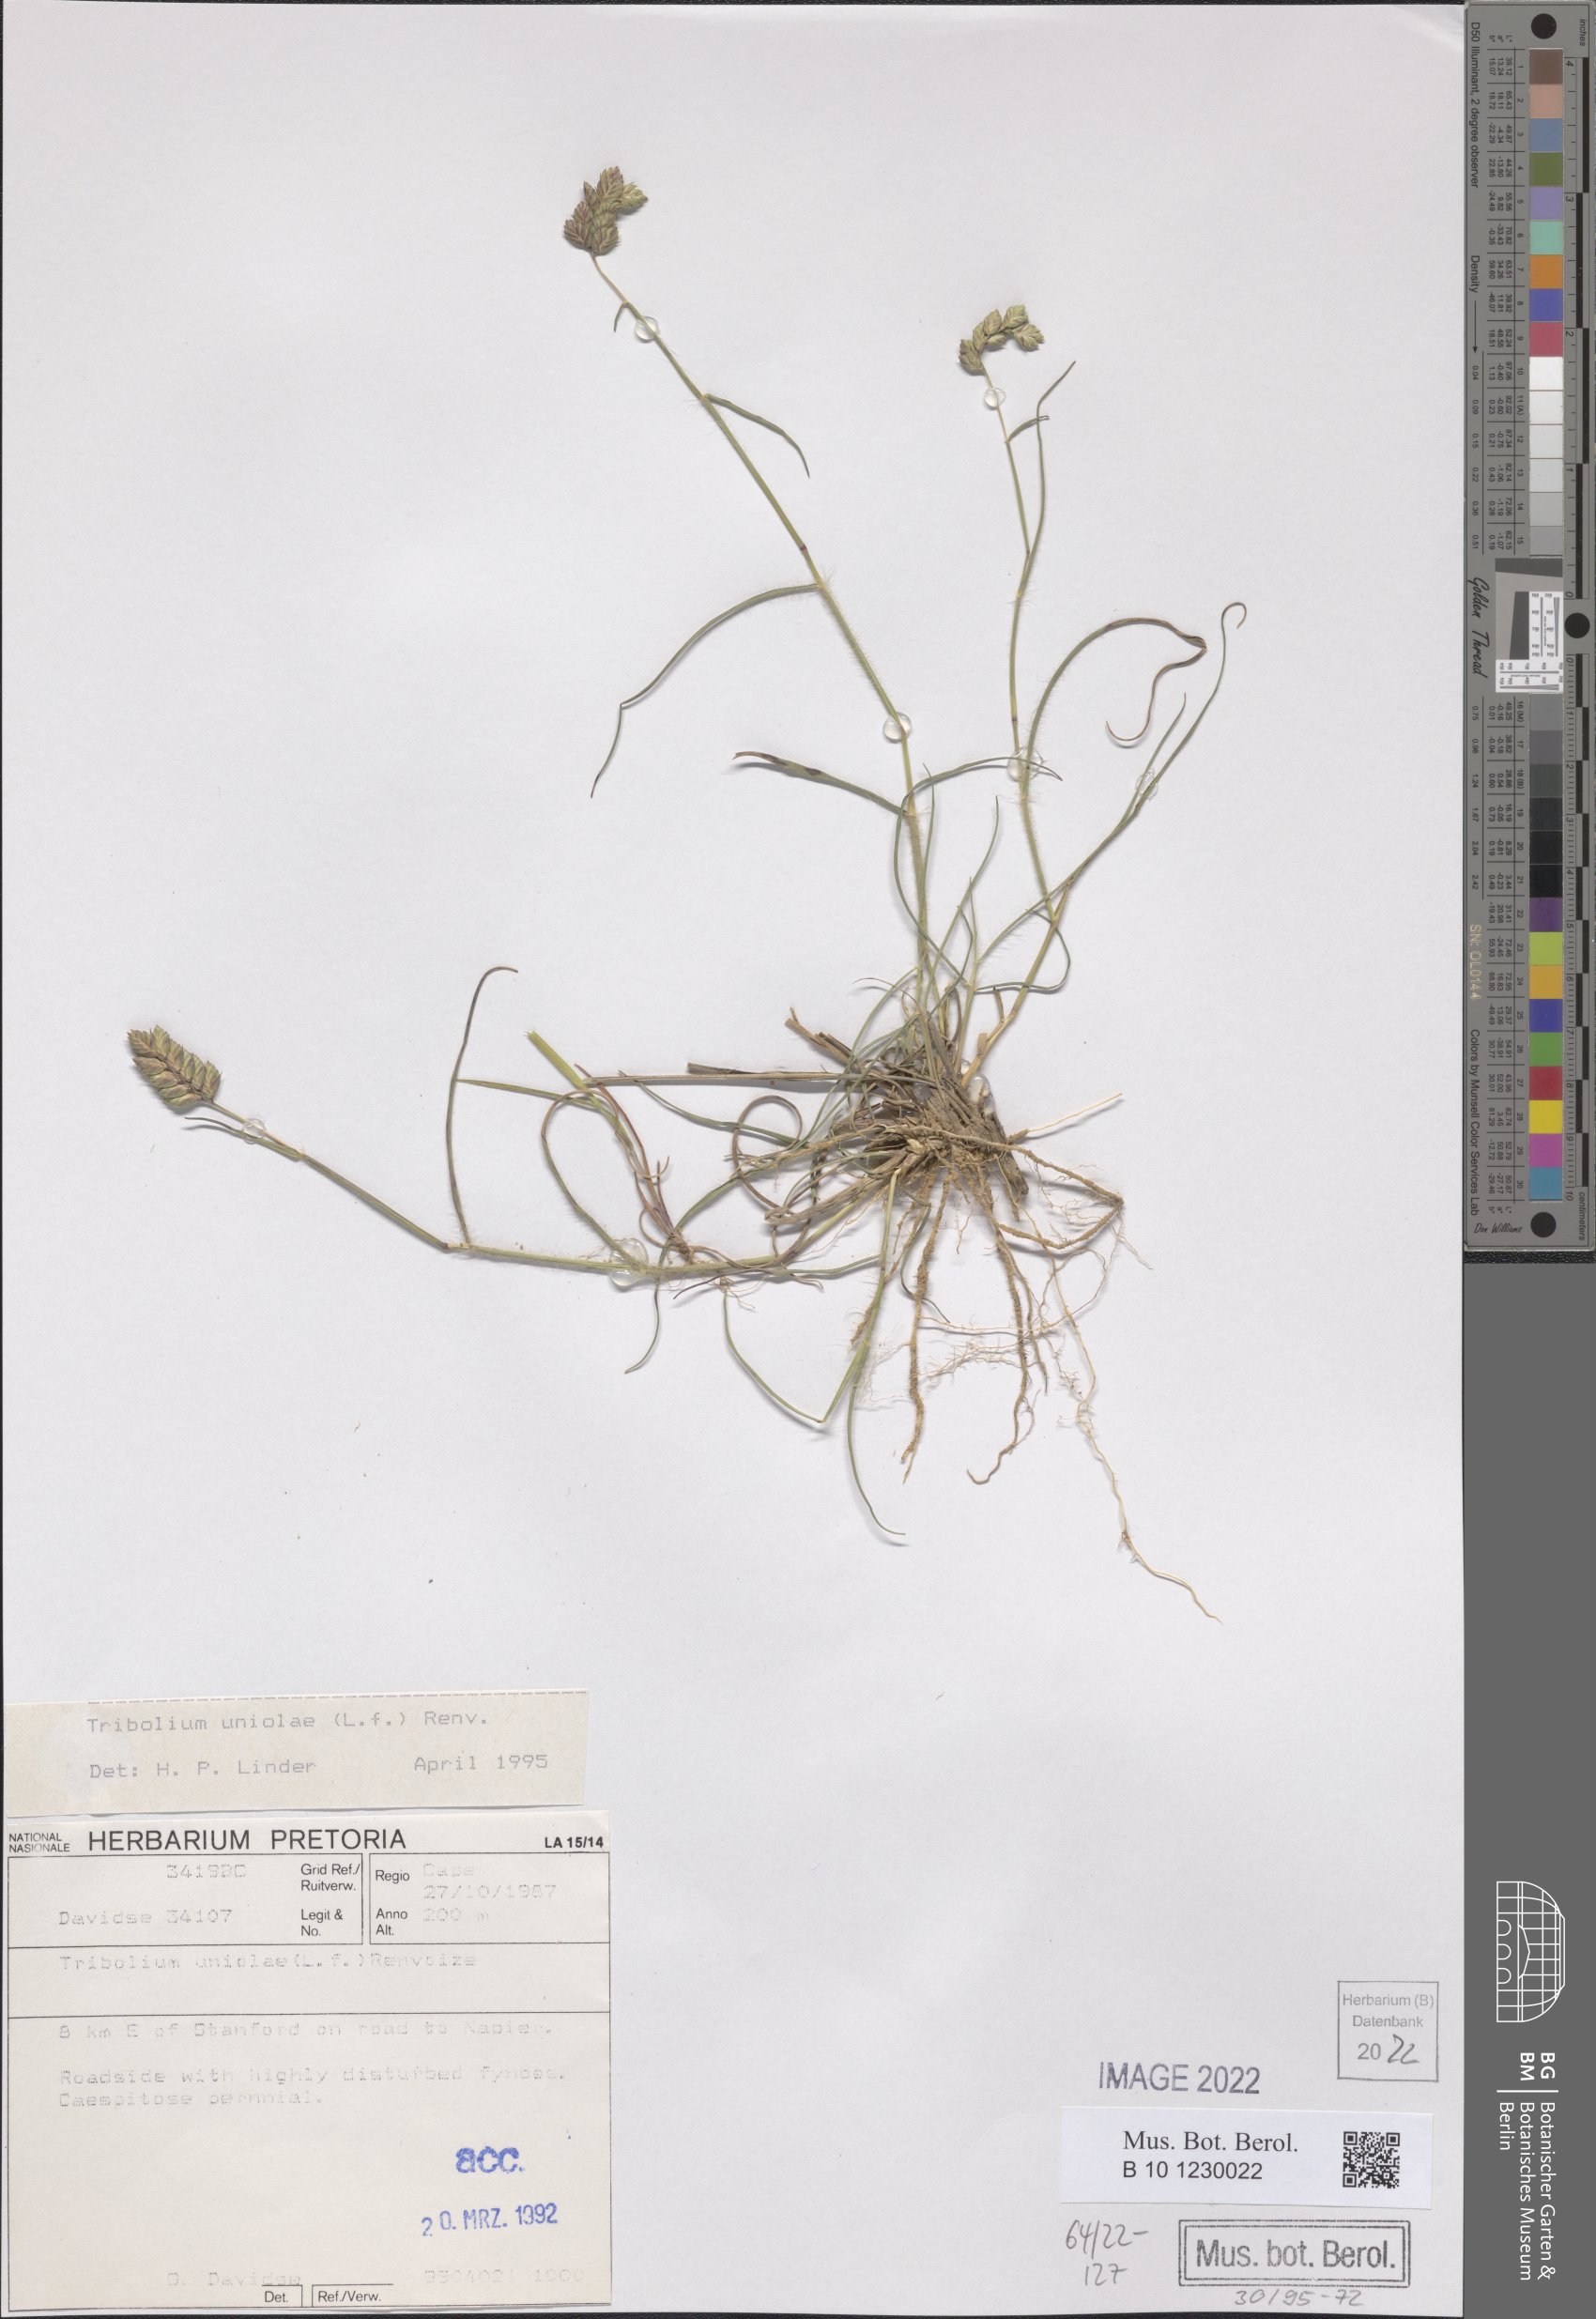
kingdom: Plantae
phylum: Tracheophyta
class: Liliopsida
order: Poales
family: Poaceae
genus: Tribolium
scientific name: Tribolium uniolae
